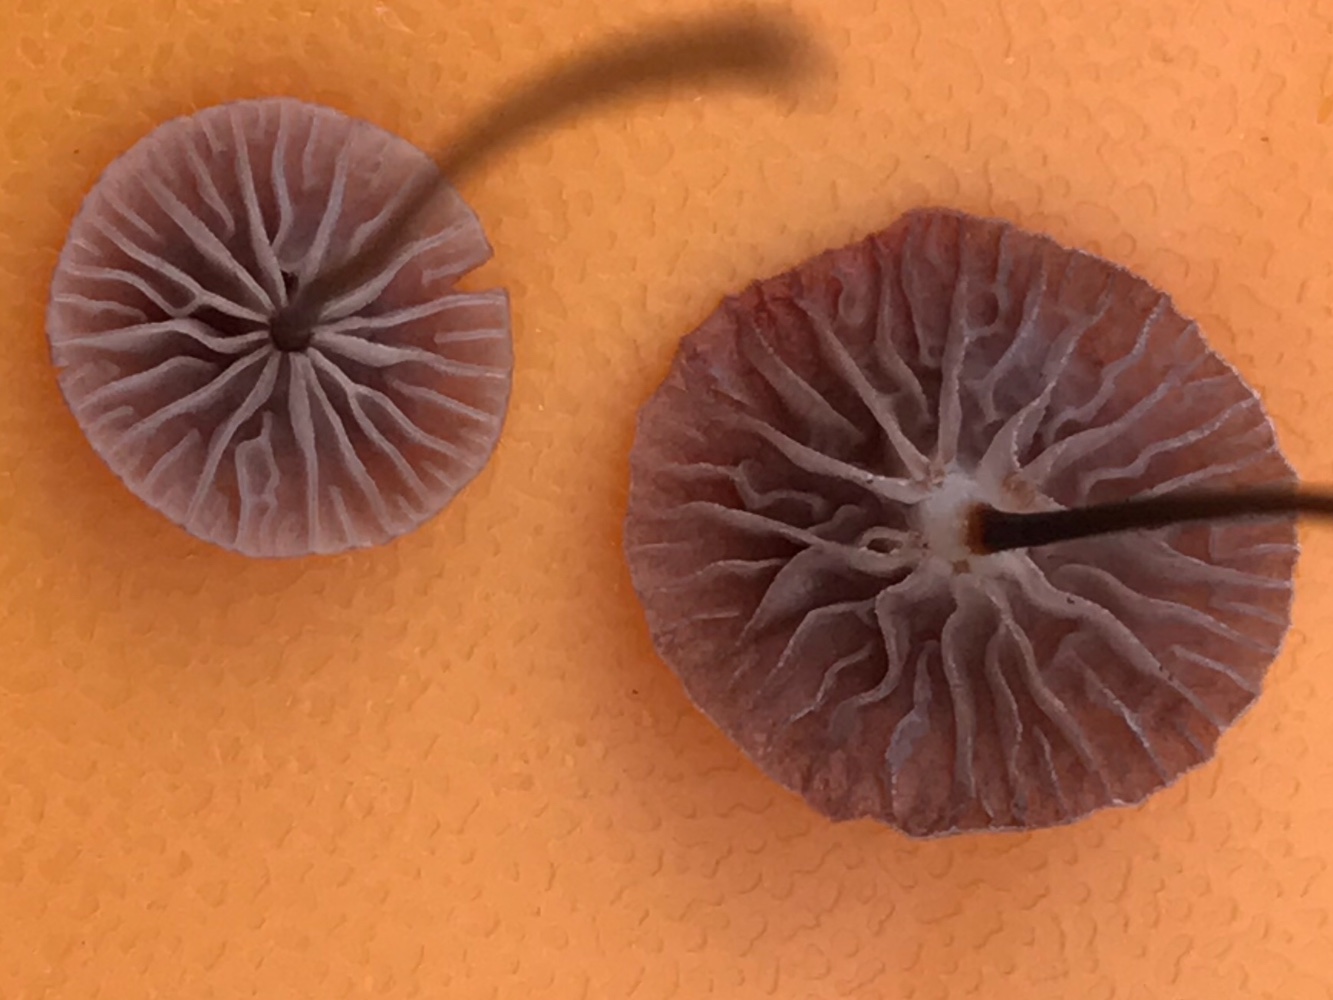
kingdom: Fungi
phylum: Basidiomycota
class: Agaricomycetes
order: Agaricales
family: Omphalotaceae
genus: Gymnopus
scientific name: Gymnopus androsaceus
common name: trådstokket fladhat
